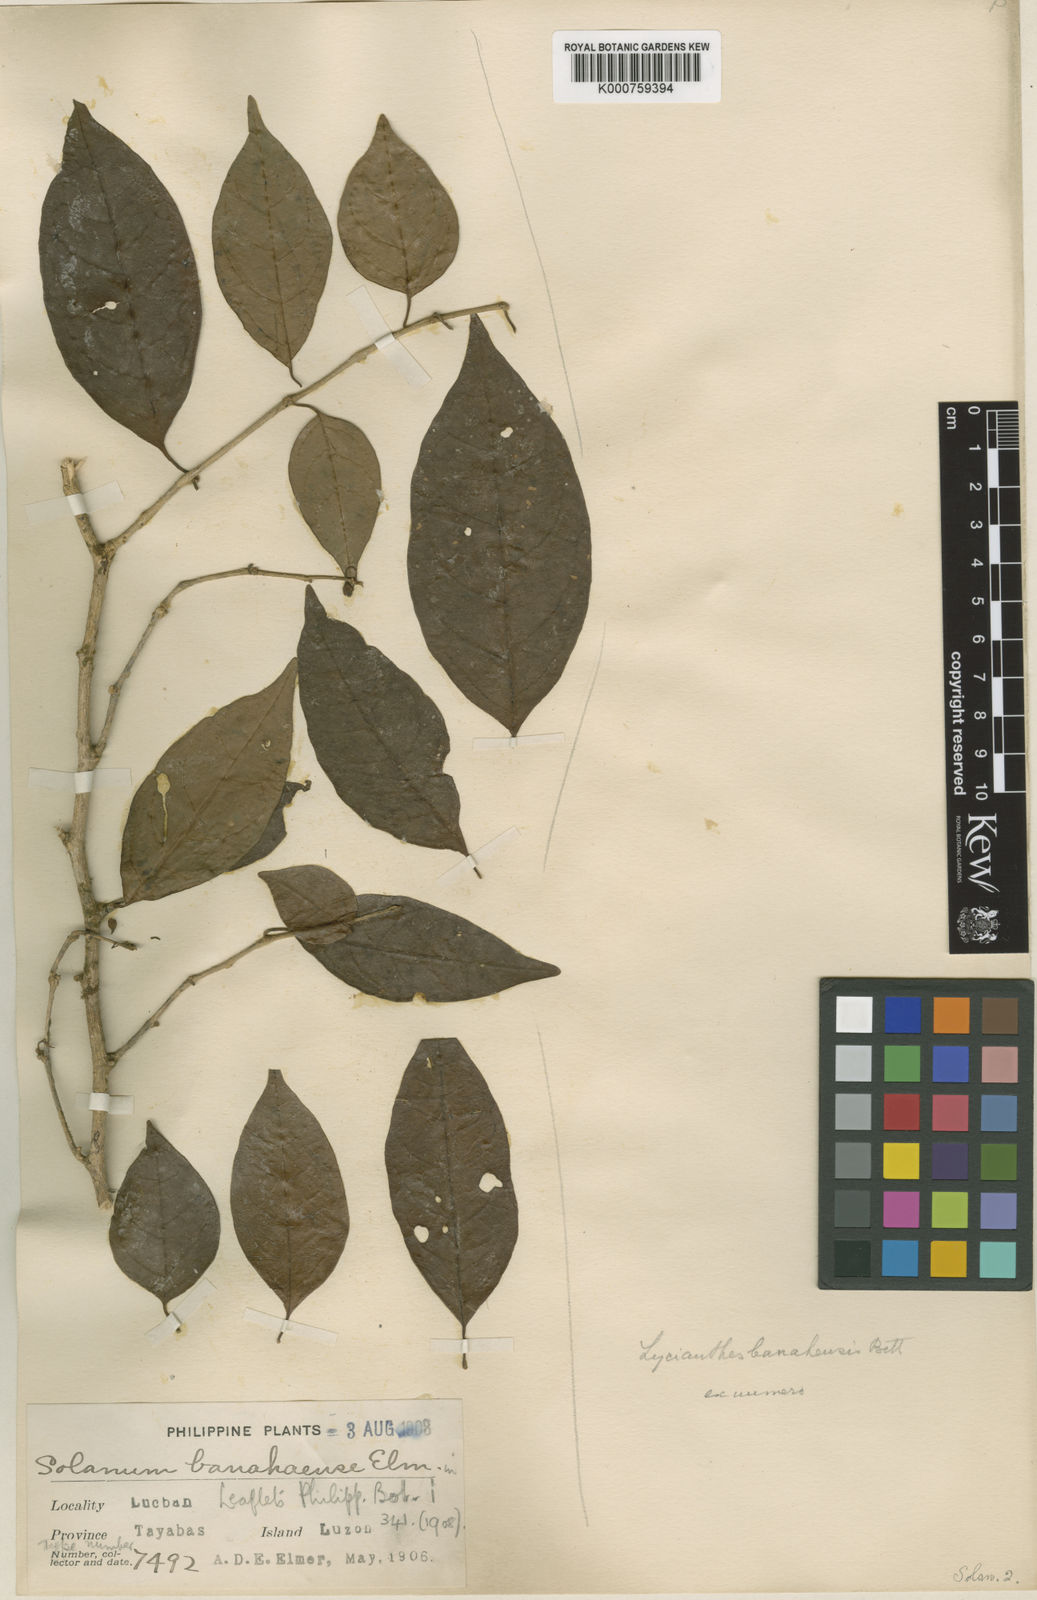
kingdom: Plantae
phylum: Tracheophyta
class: Magnoliopsida
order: Solanales
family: Solanaceae
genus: Lycianthes
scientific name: Lycianthes banahaensis
